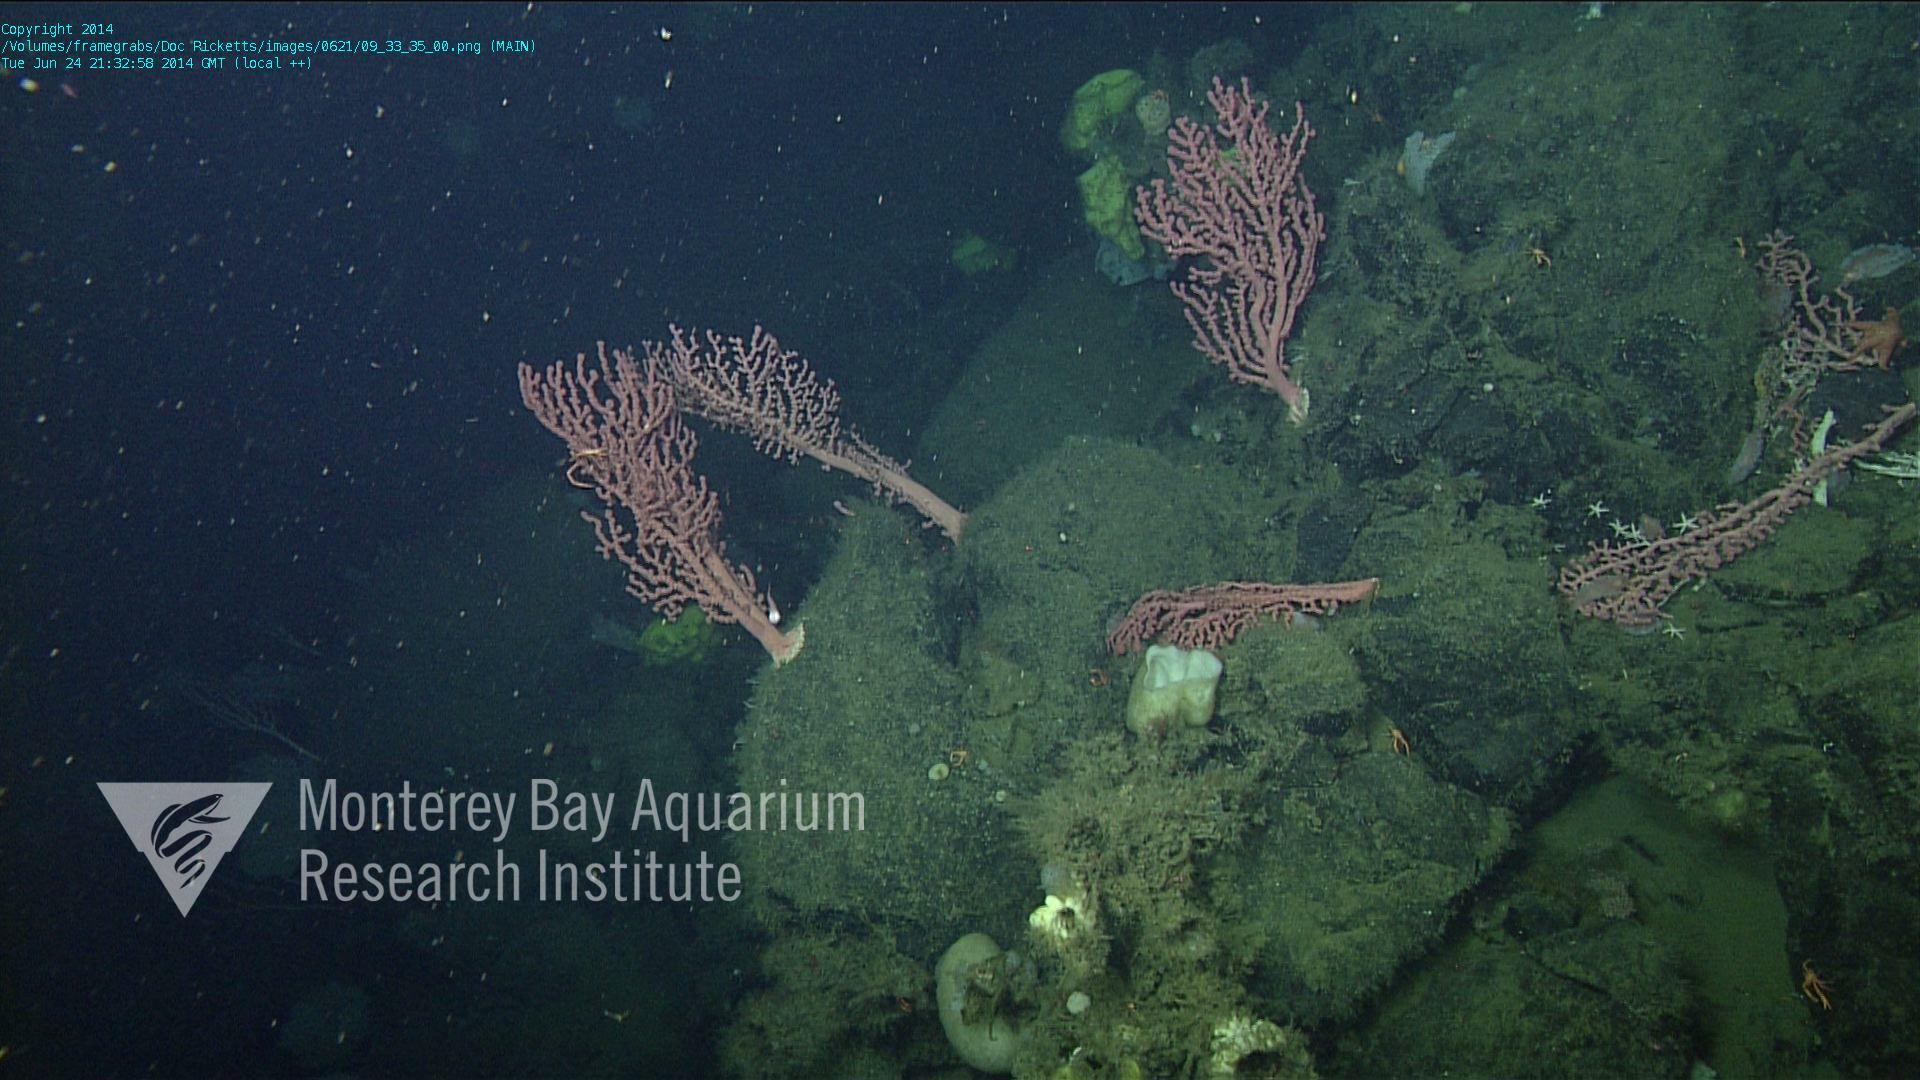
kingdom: Animalia
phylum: Cnidaria
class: Anthozoa
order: Scleralcyonacea
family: Coralliidae
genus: Paragorgia
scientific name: Paragorgia arborea
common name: Bubble gum coral
